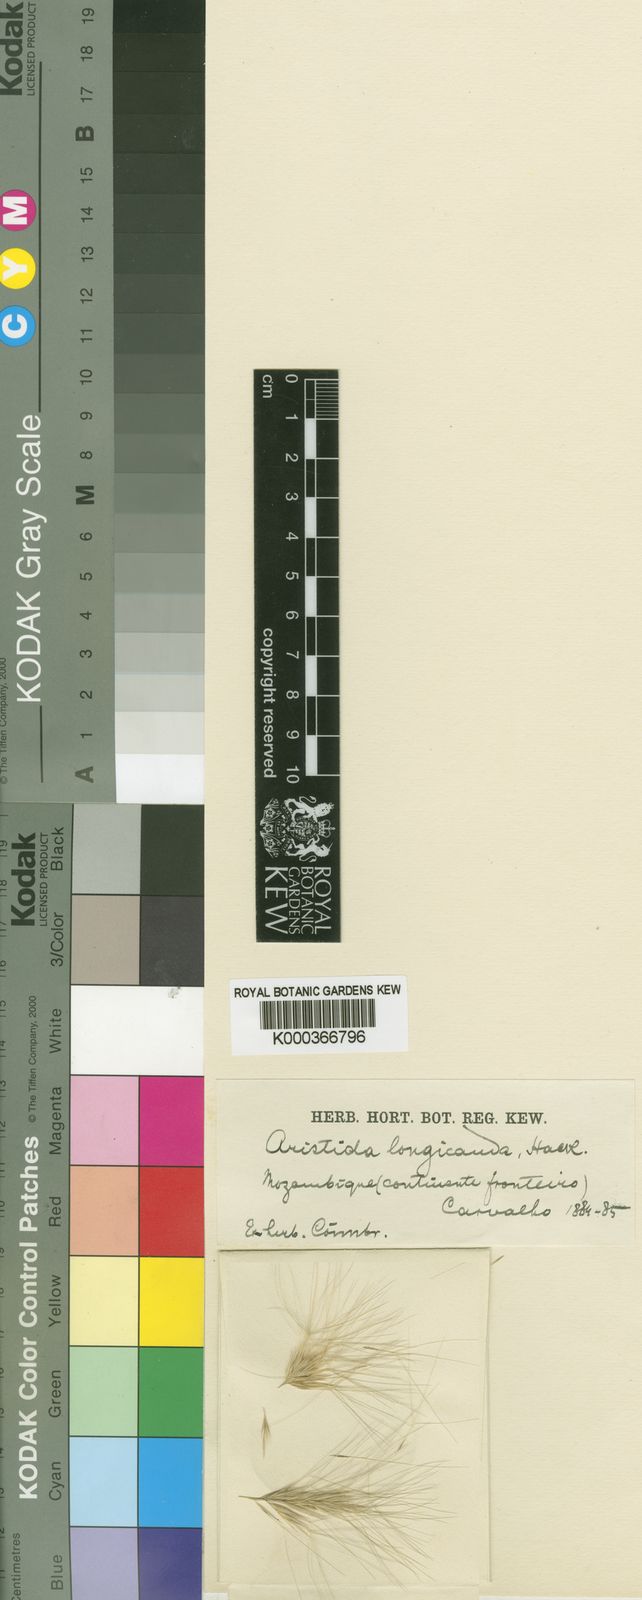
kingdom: Plantae
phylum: Tracheophyta
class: Liliopsida
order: Poales
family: Poaceae
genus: Aristida
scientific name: Aristida congesta
